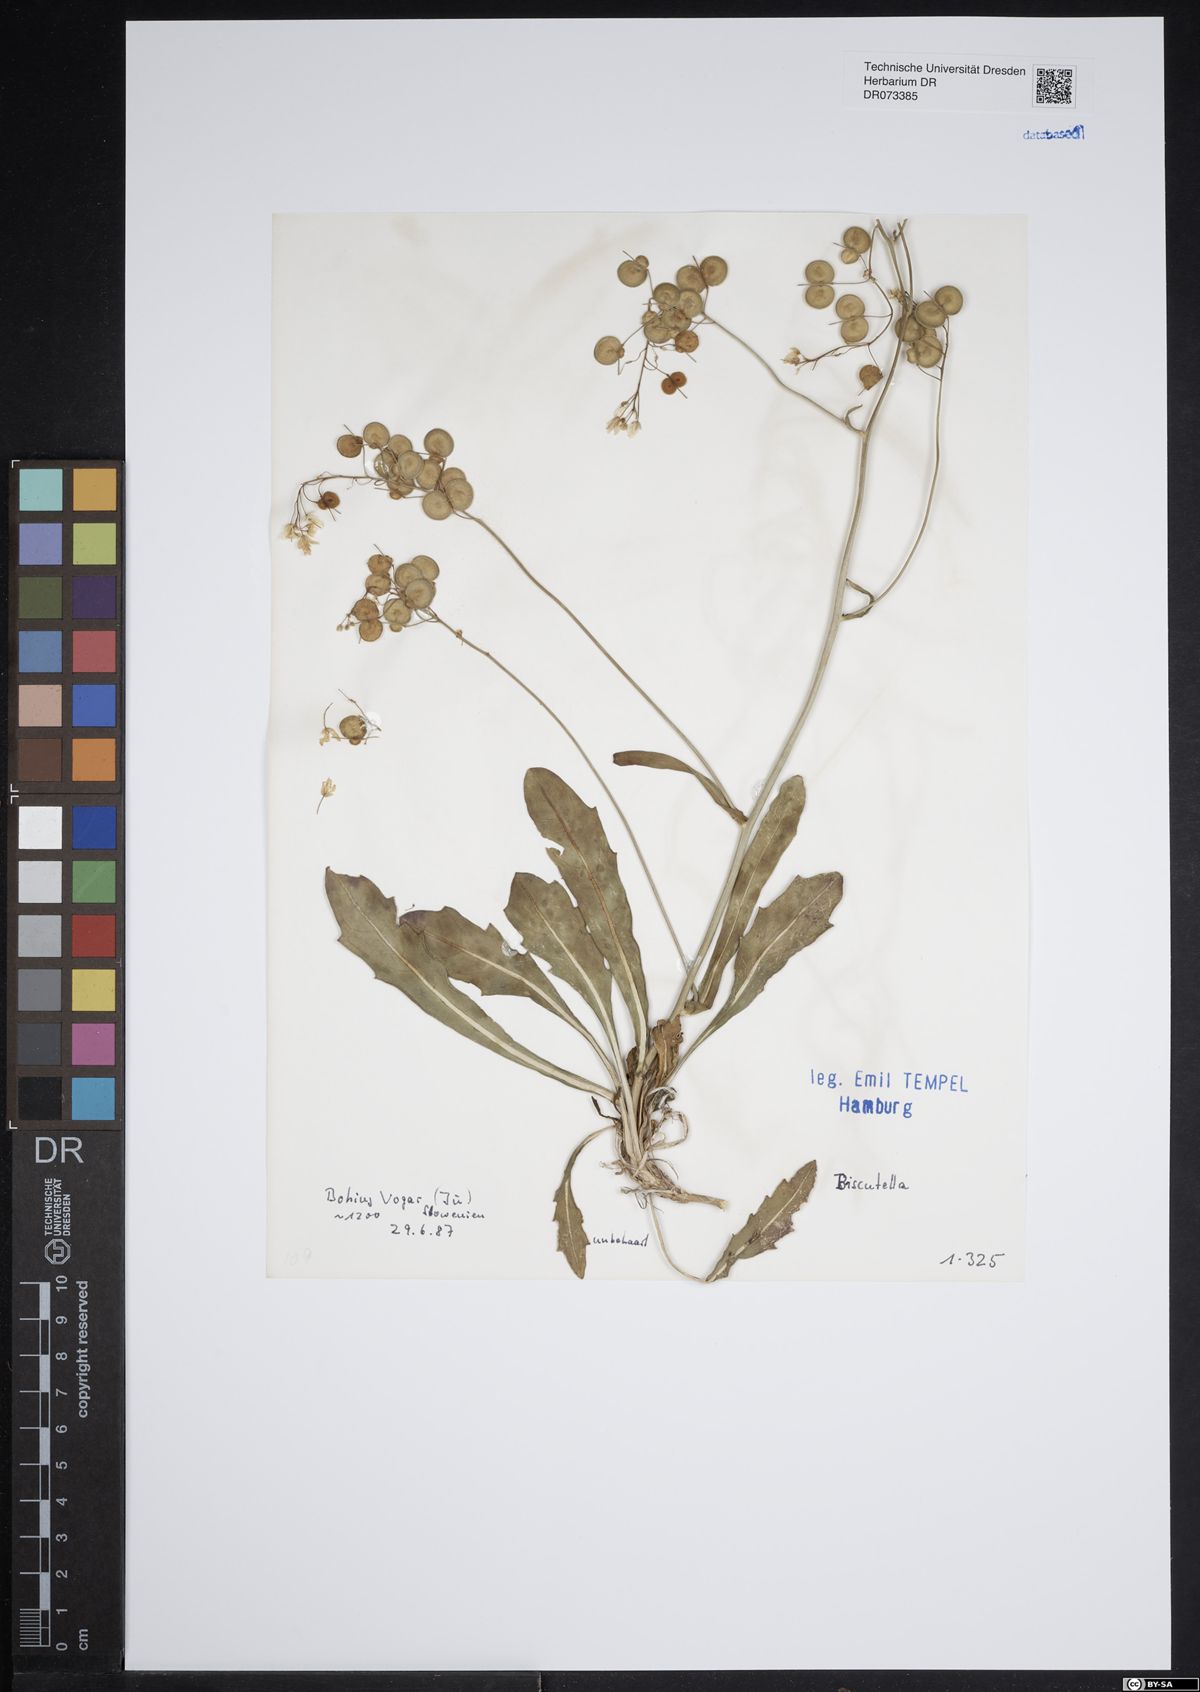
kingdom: Plantae
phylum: Tracheophyta
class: Magnoliopsida
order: Brassicales
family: Brassicaceae
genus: Biscutella
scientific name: Biscutella
